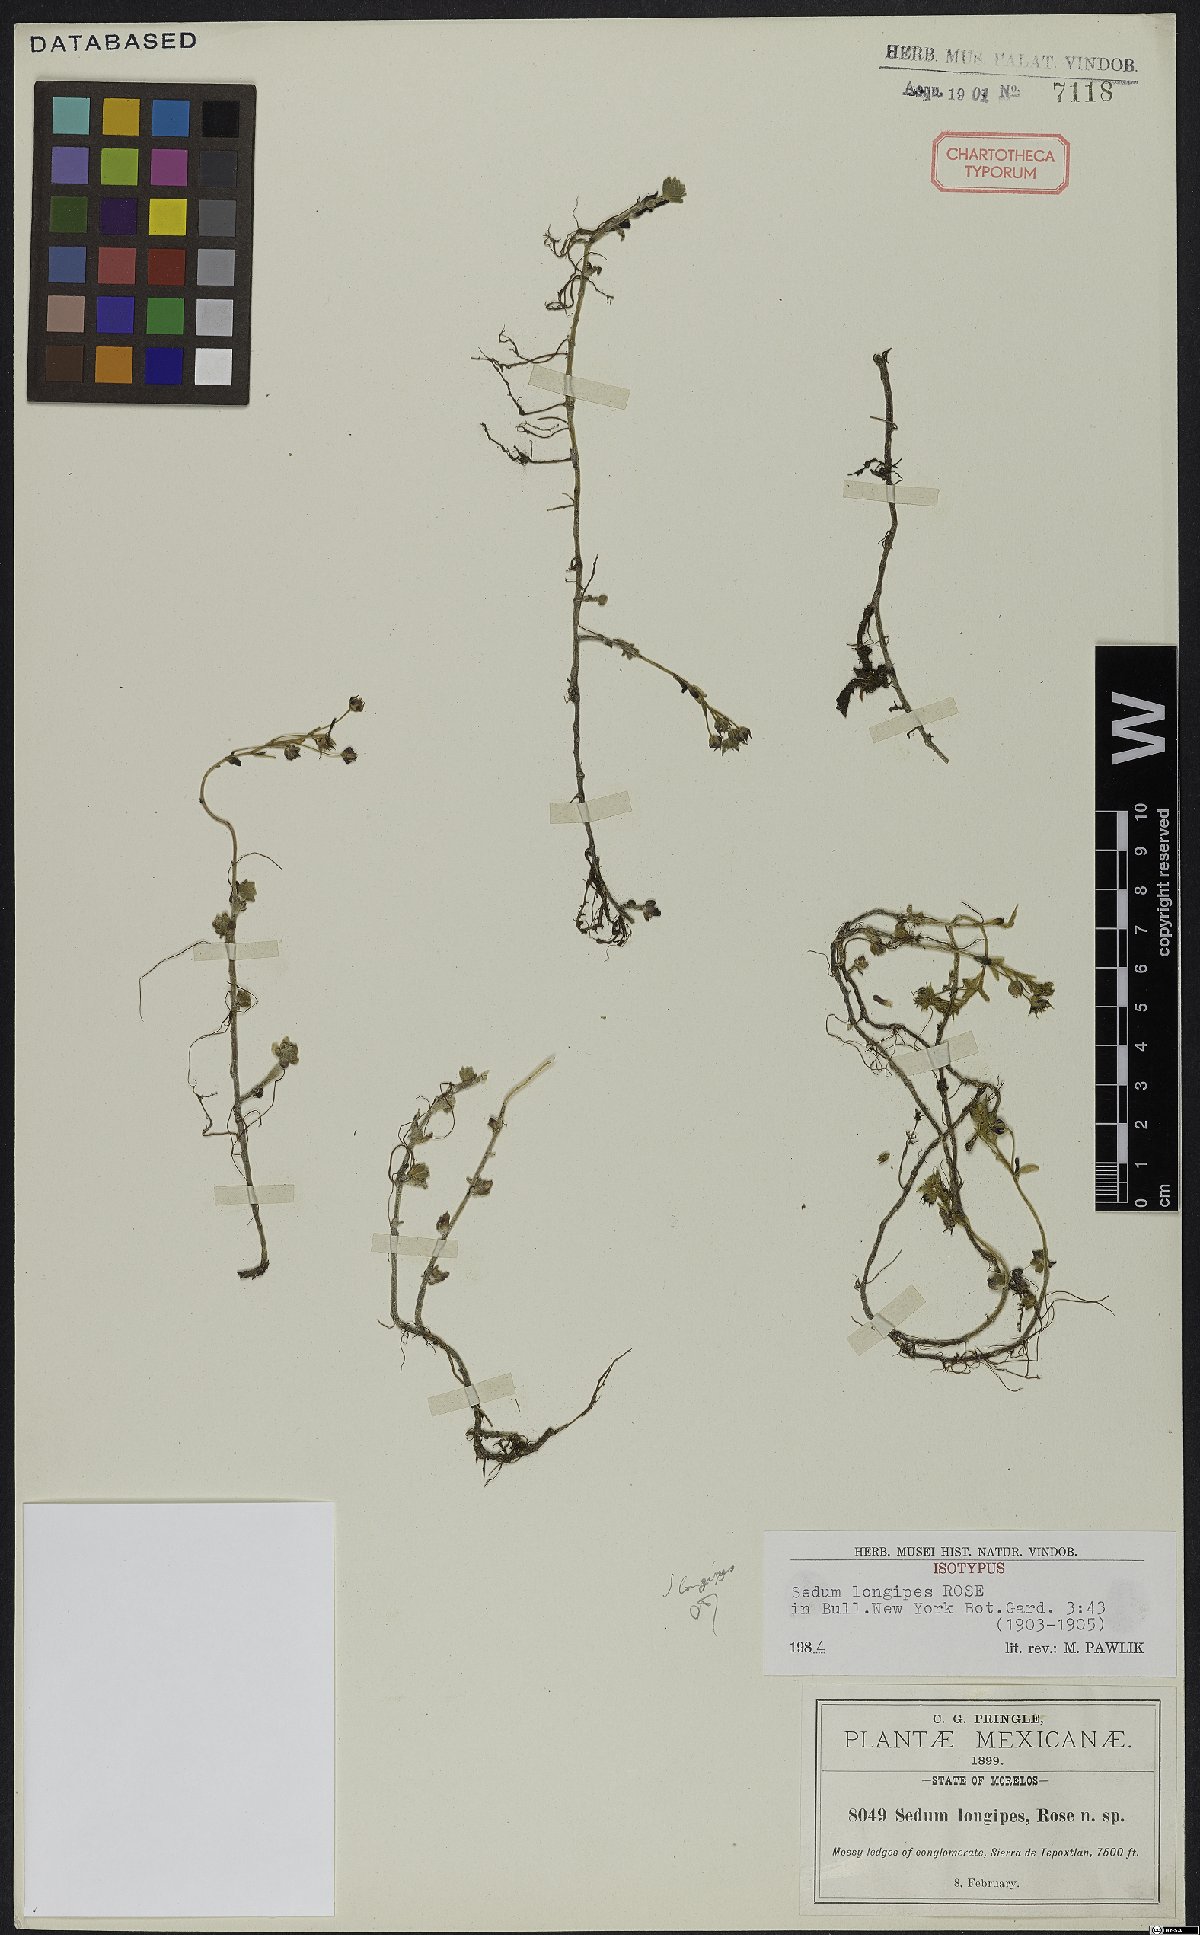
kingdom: Plantae
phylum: Tracheophyta
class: Magnoliopsida
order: Saxifragales
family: Crassulaceae
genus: Sedum
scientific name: Sedum longipes
